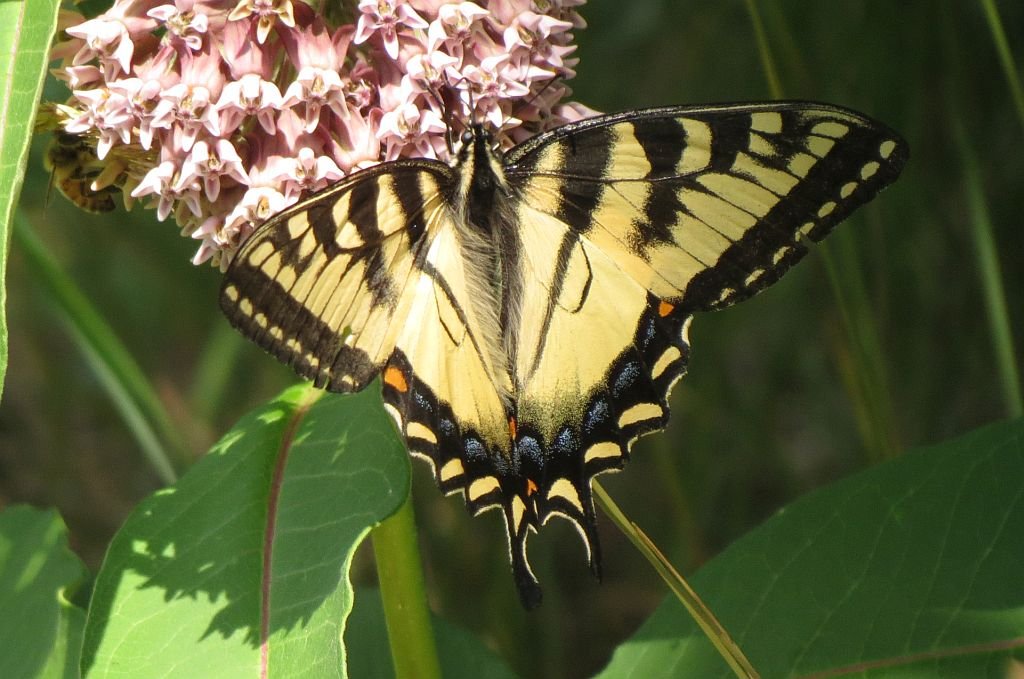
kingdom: Animalia
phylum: Arthropoda
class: Insecta
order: Lepidoptera
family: Papilionidae
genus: Pterourus
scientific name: Pterourus canadensis
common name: Canadian Tiger Swallowtail
